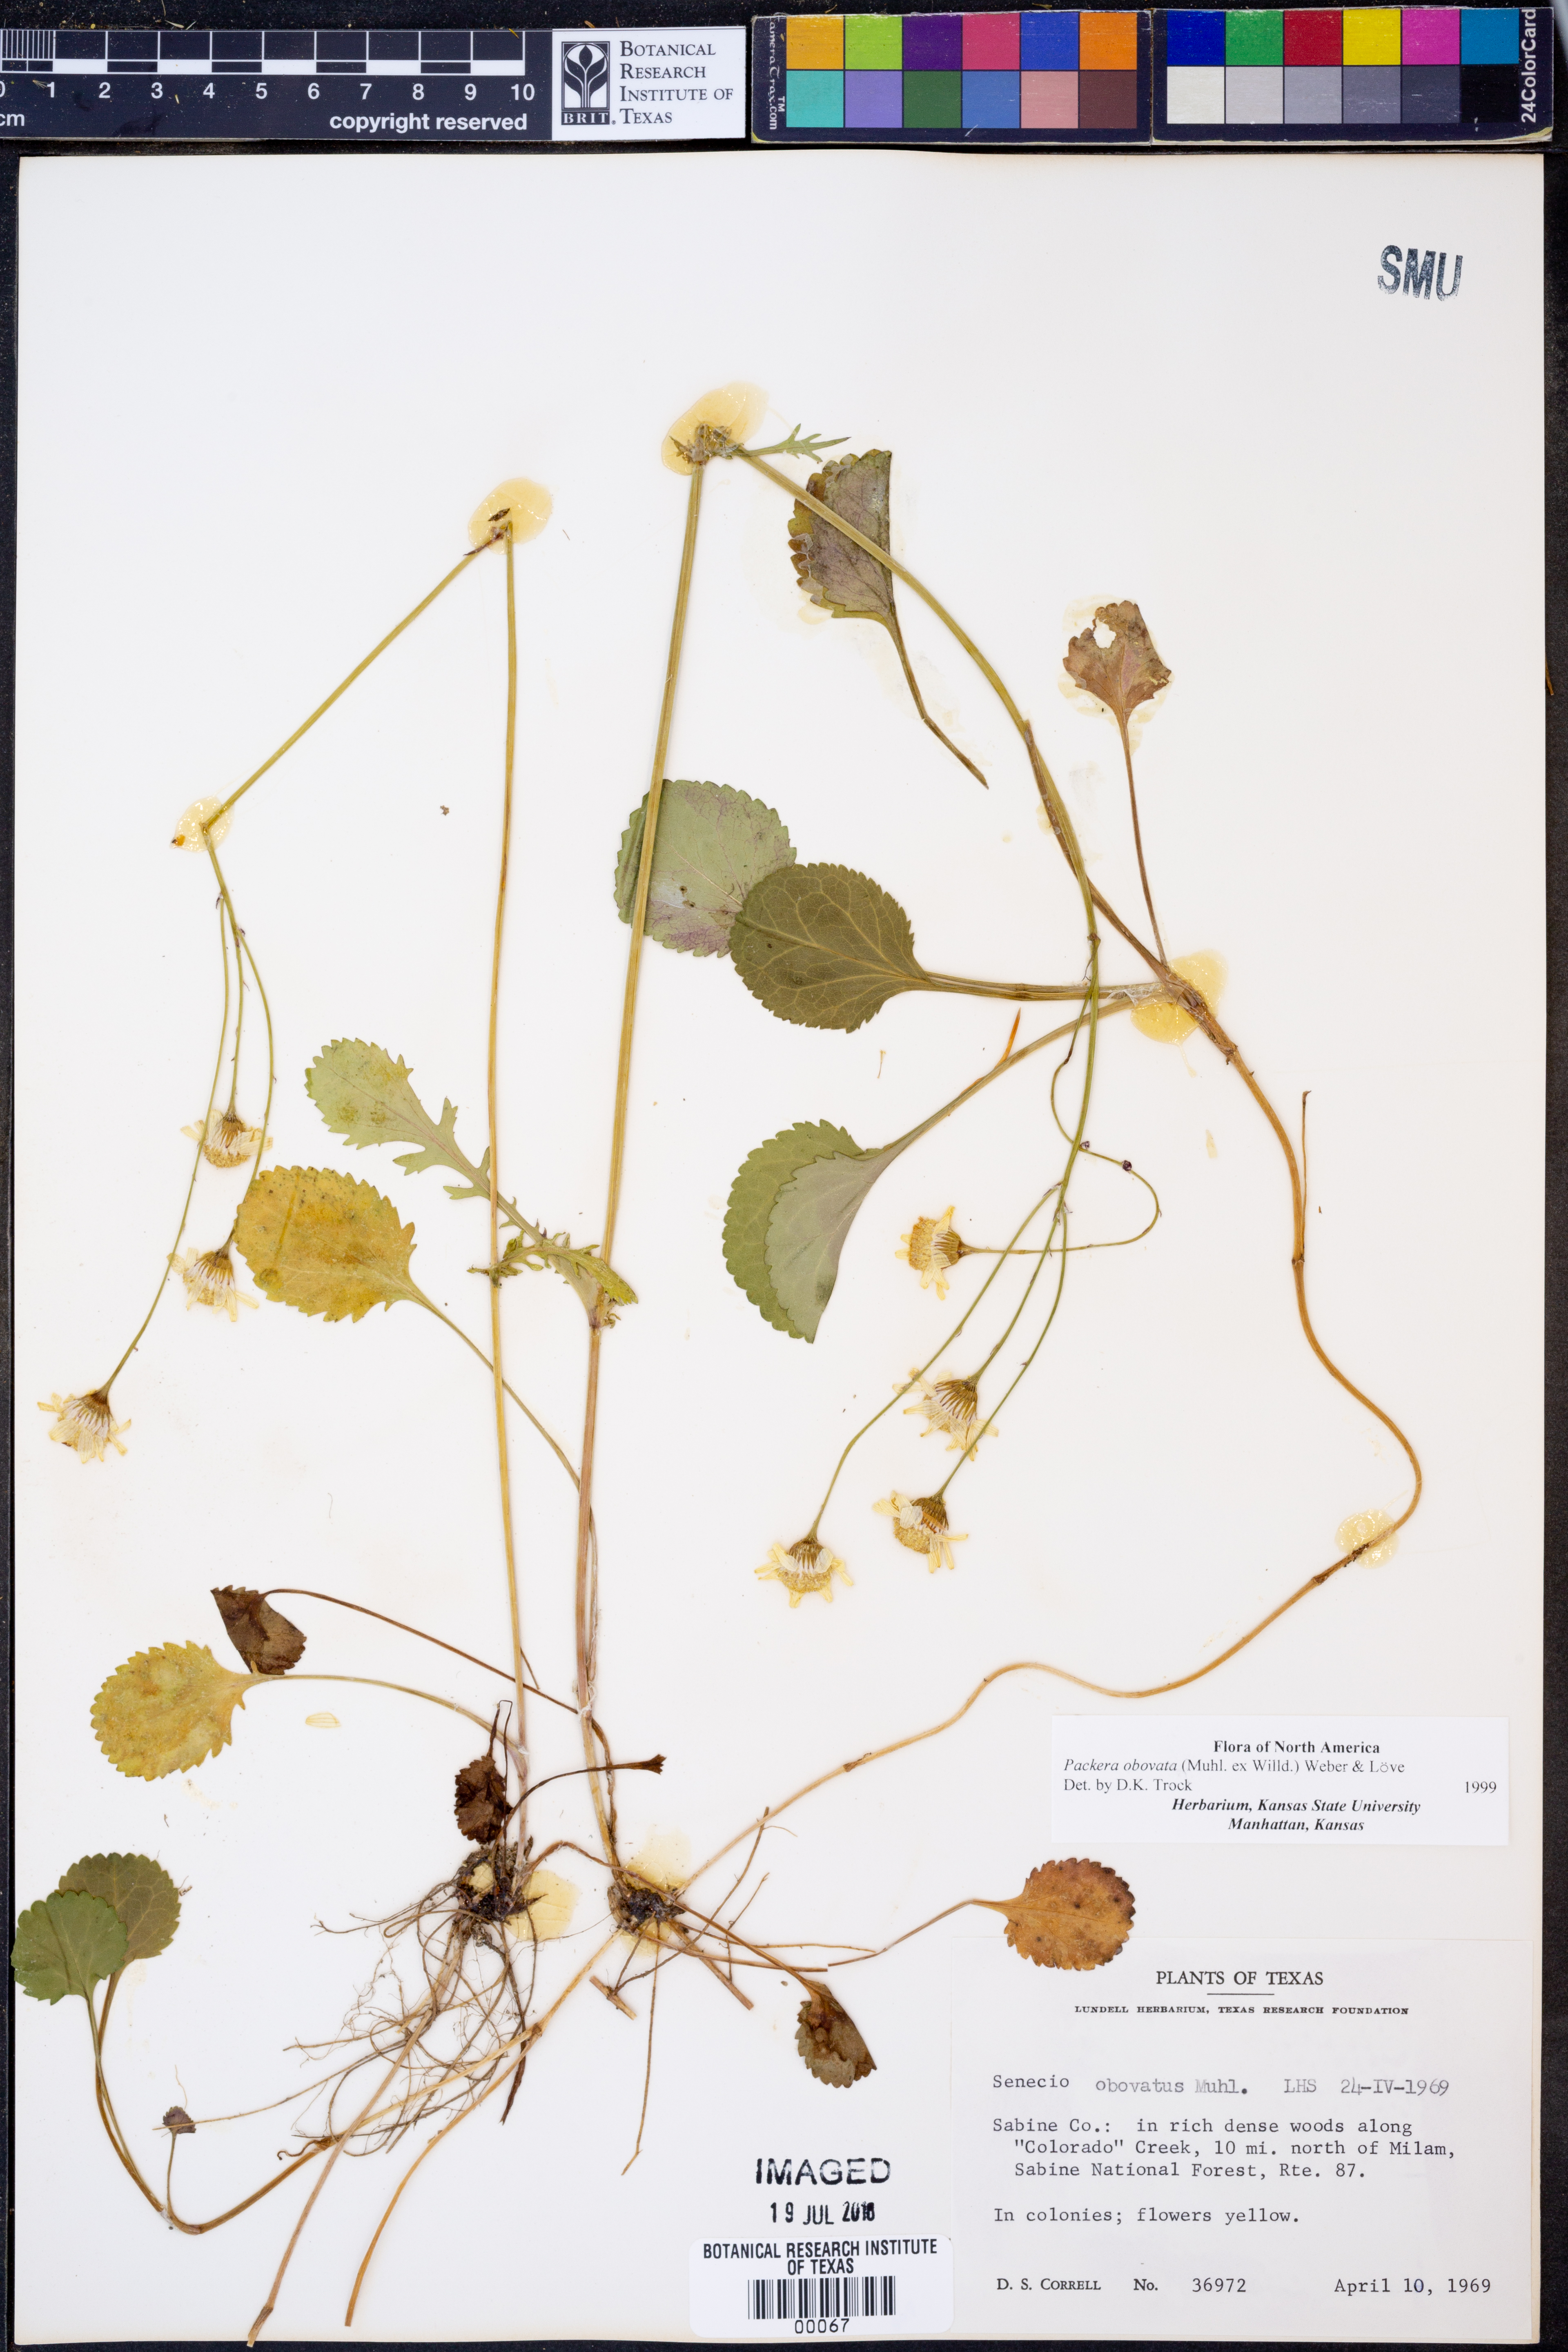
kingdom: Plantae
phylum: Tracheophyta
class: Magnoliopsida
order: Asterales
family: Asteraceae
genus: Packera
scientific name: Packera obovata
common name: Round-leaf ragwort
